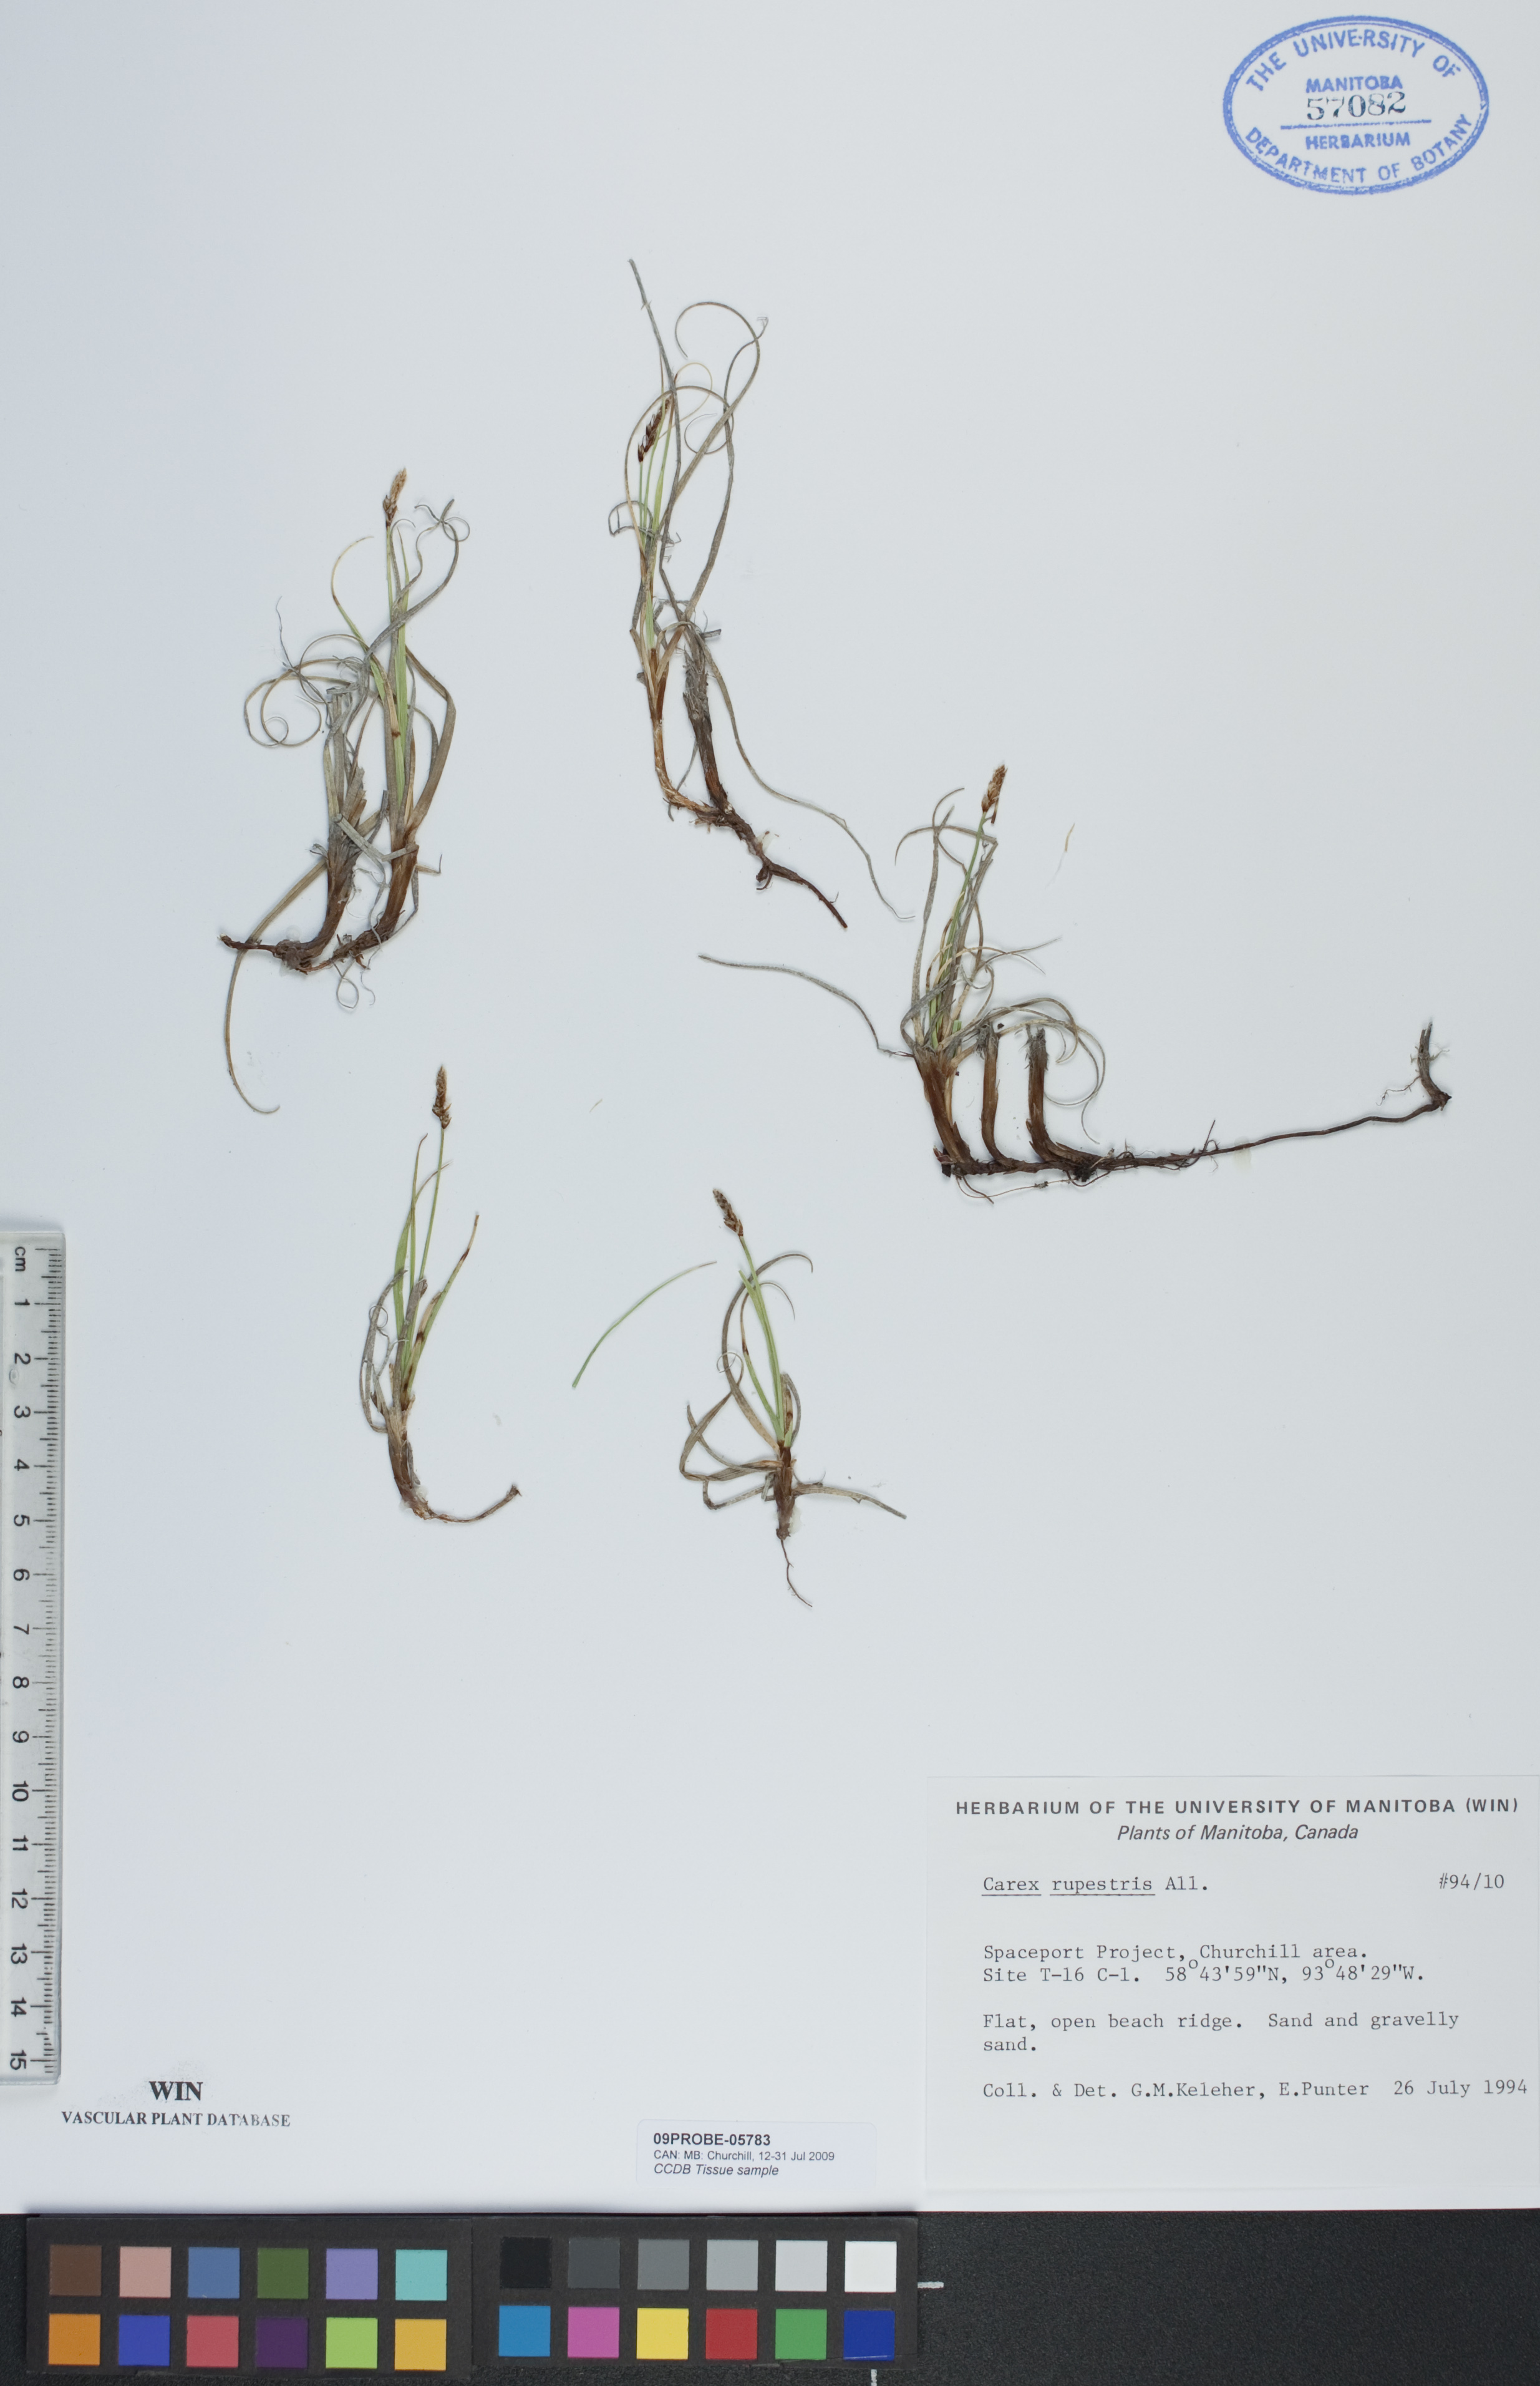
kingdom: Plantae
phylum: Tracheophyta
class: Liliopsida
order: Poales
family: Cyperaceae
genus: Carex
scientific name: Carex rupestris
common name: Rock sedge
